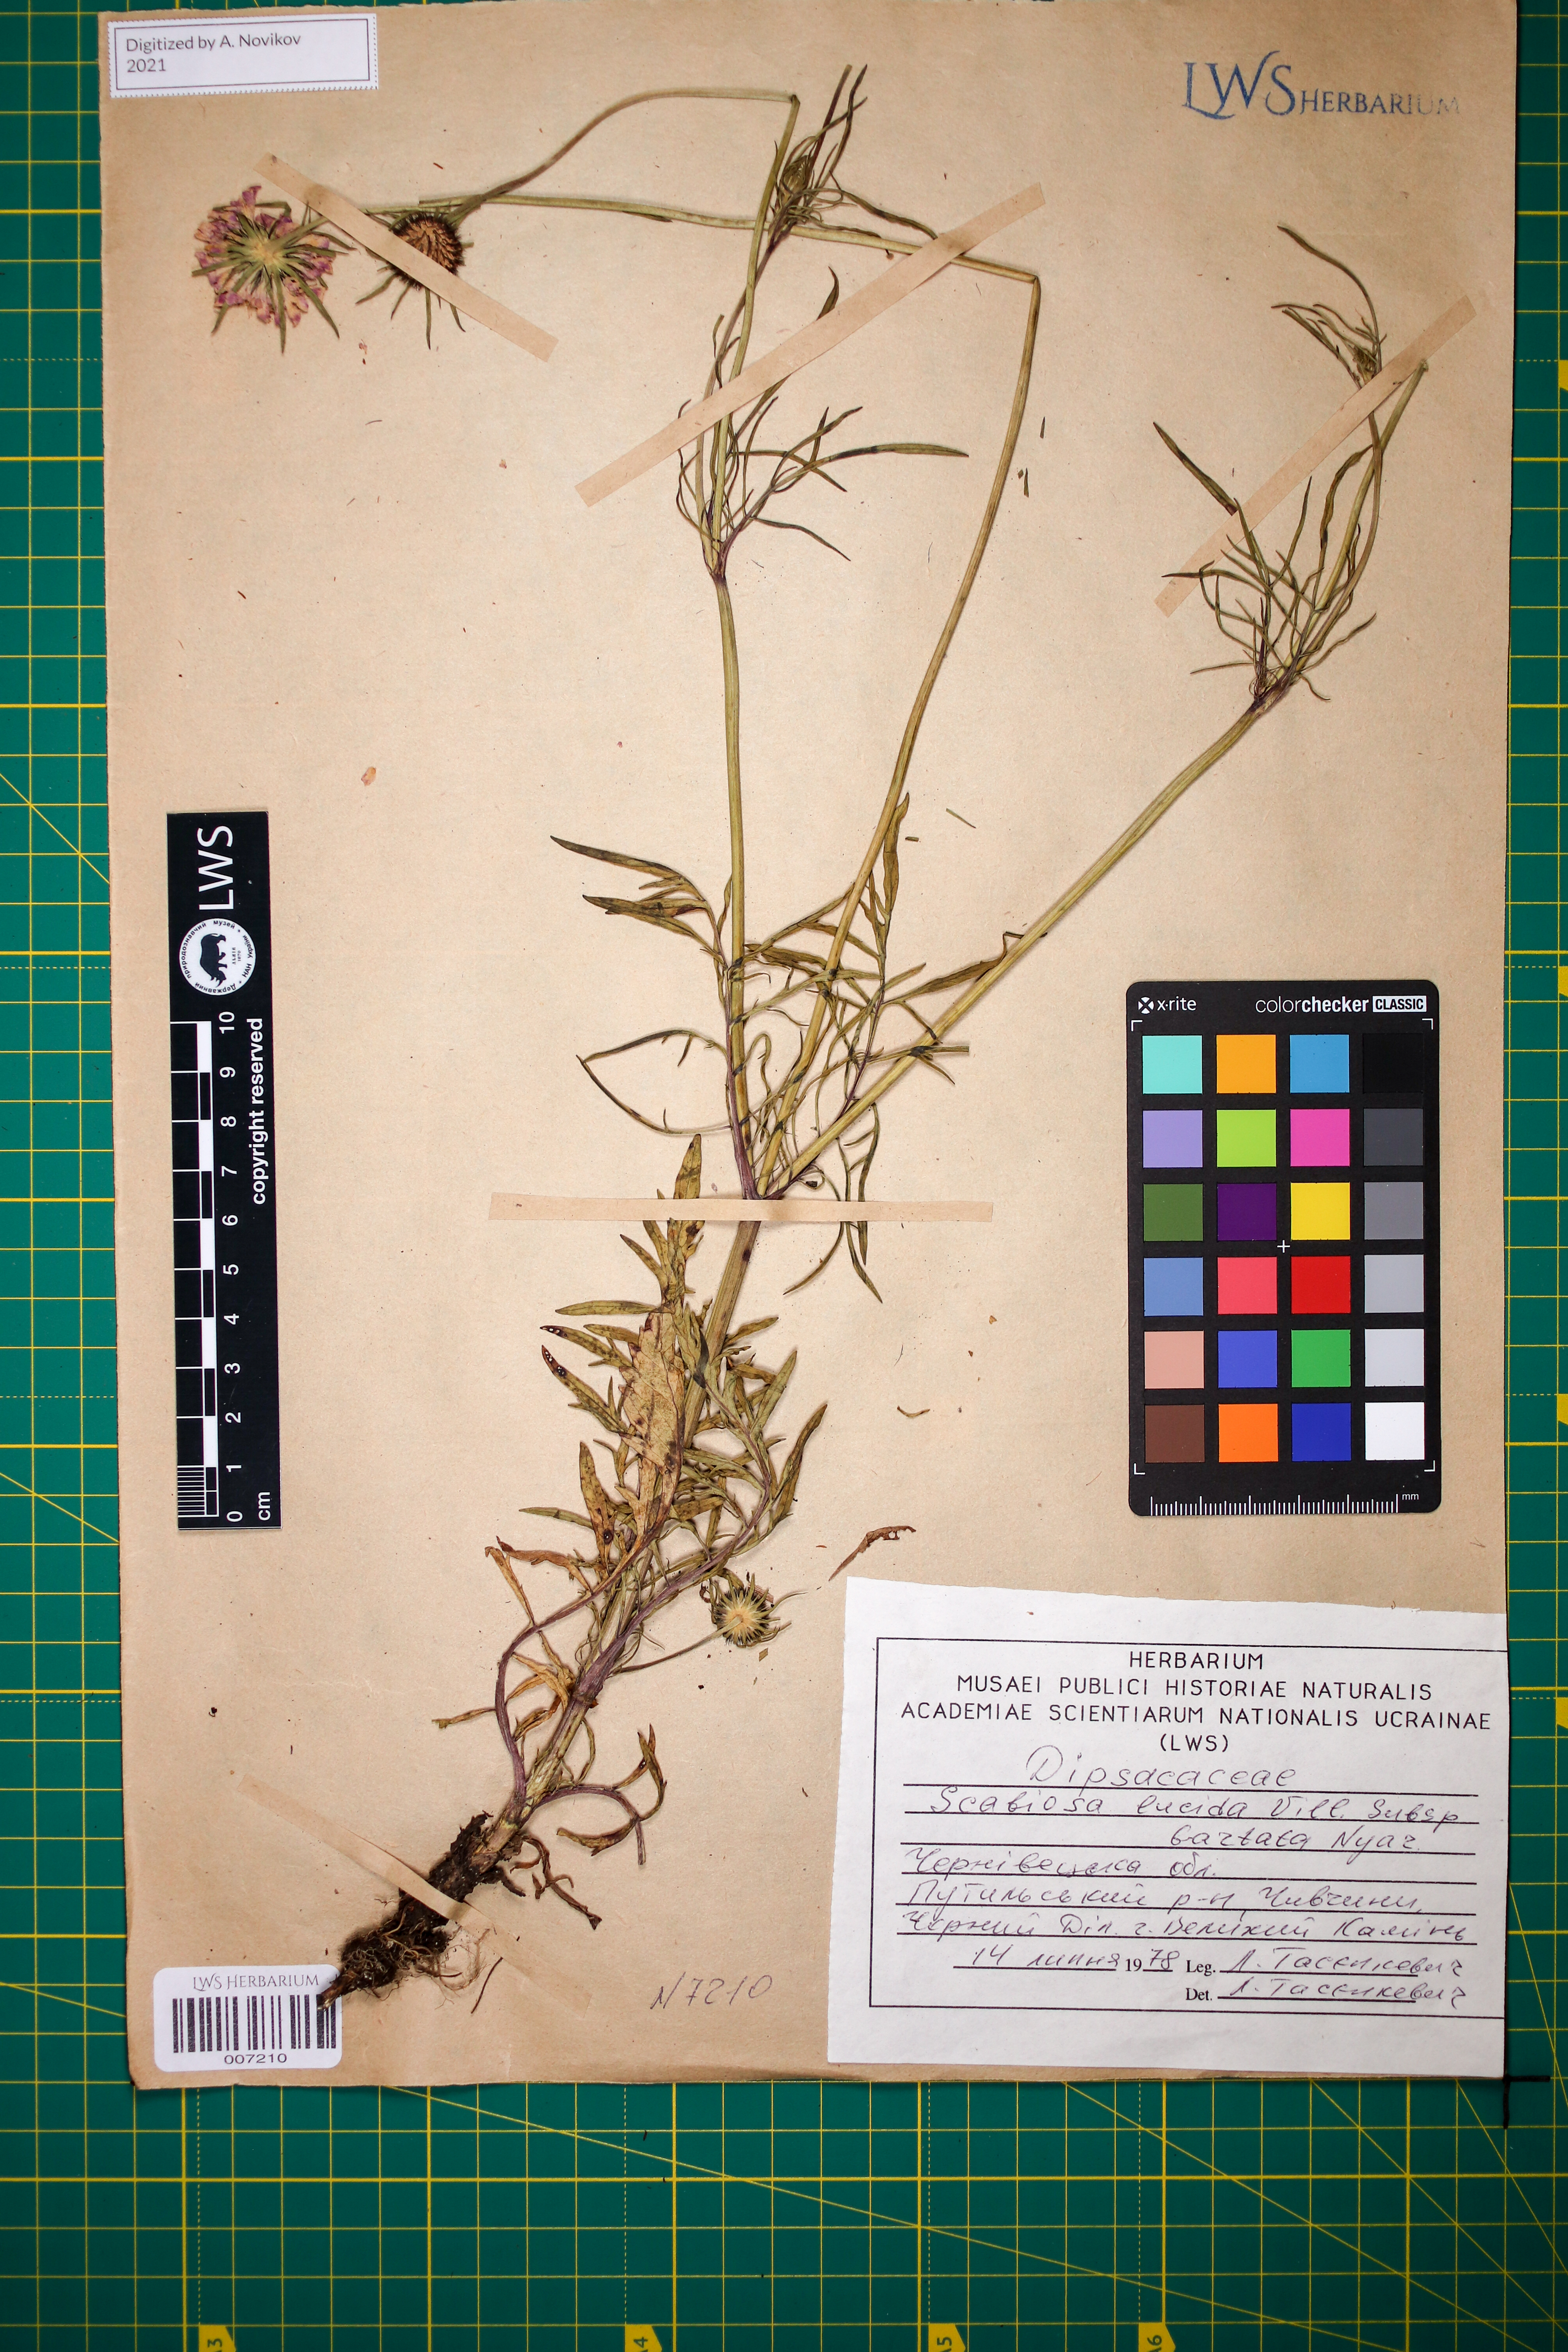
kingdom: Plantae
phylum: Tracheophyta
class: Magnoliopsida
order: Dipsacales
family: Caprifoliaceae
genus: Scabiosa
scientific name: Scabiosa lucida
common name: Shining scabious
